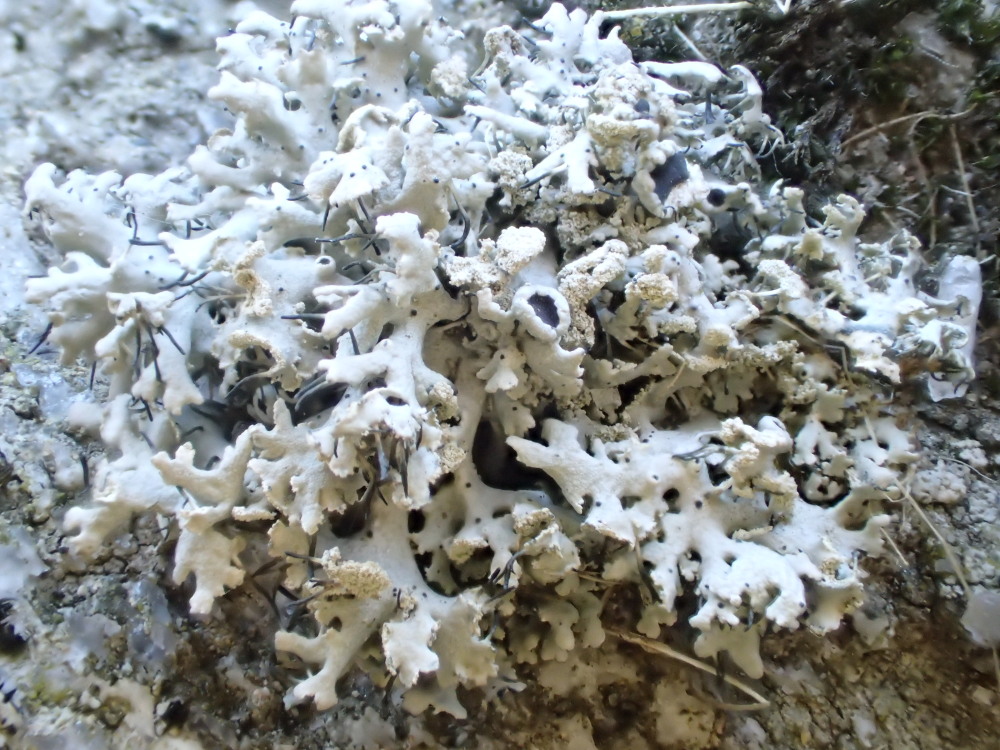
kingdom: Fungi
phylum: Ascomycota
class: Lecanoromycetes
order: Caliciales
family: Physciaceae
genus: Physcia
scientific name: Physcia tenella
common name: spæd rosetlav
